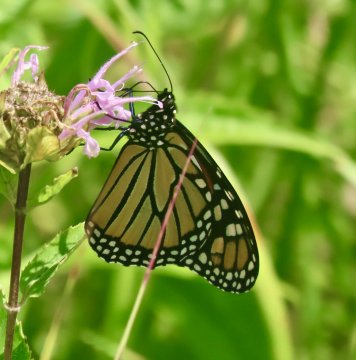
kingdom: Animalia
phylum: Arthropoda
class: Insecta
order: Lepidoptera
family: Nymphalidae
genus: Danaus
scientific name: Danaus plexippus
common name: Monarch
